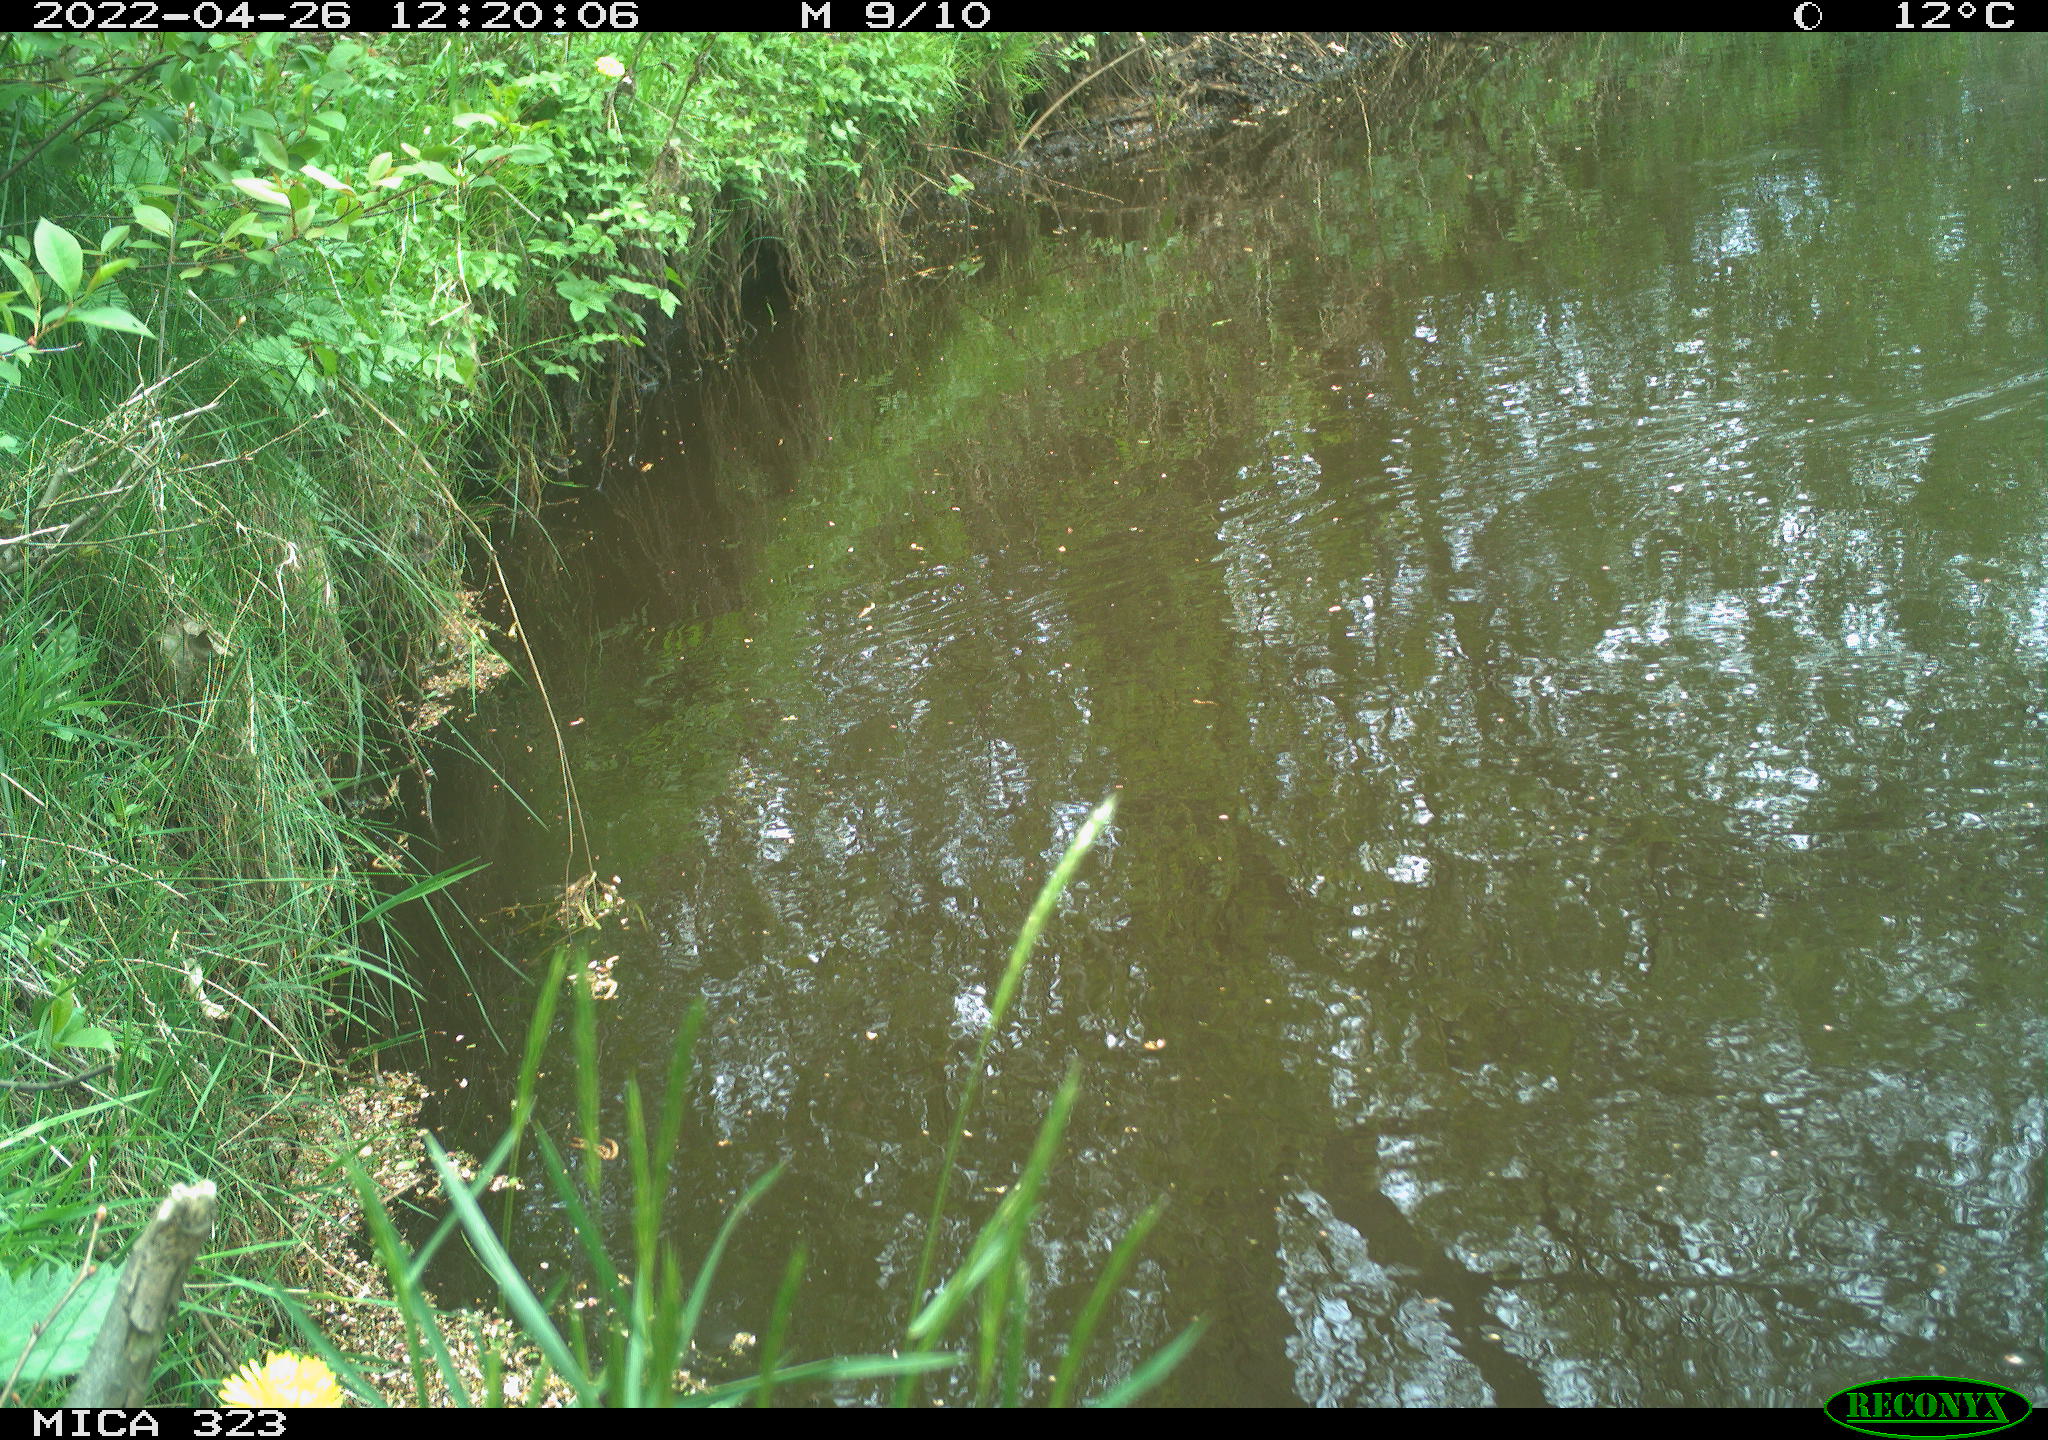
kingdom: Animalia
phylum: Chordata
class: Aves
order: Gruiformes
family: Rallidae
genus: Gallinula
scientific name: Gallinula chloropus
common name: Common moorhen
